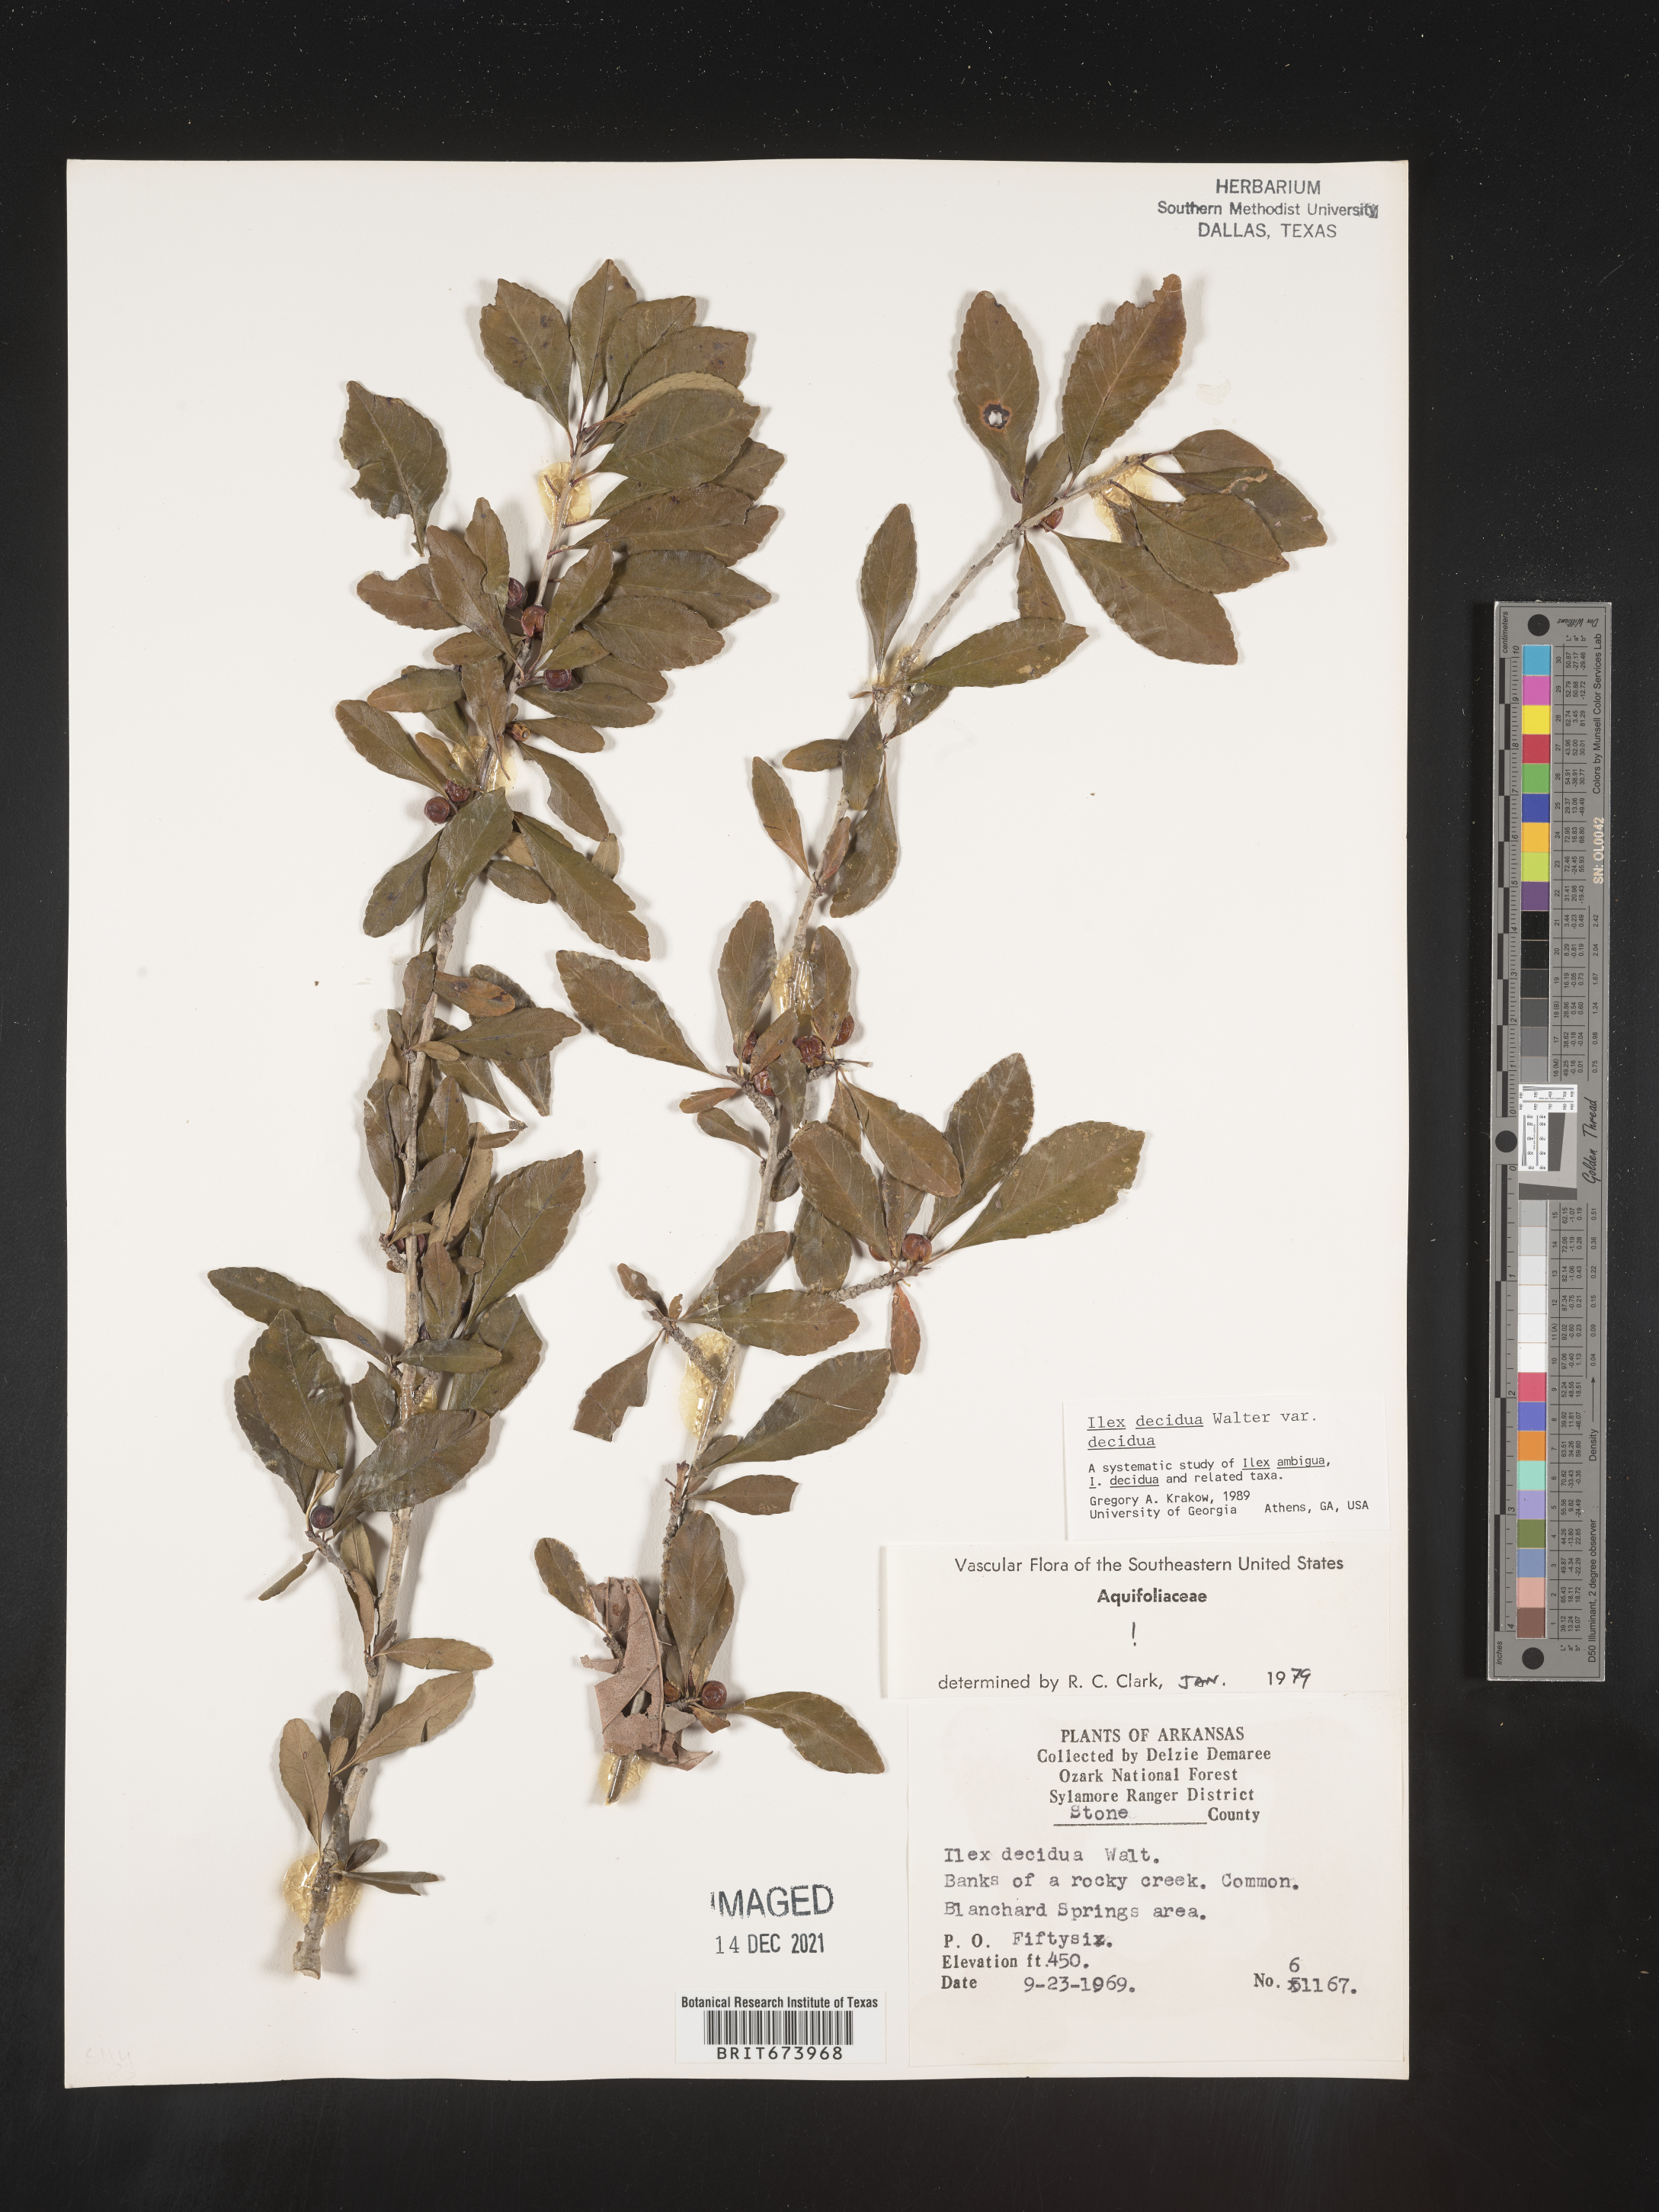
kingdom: Plantae
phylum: Tracheophyta
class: Magnoliopsida
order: Aquifoliales
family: Aquifoliaceae
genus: Ilex
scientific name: Ilex decidua
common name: Possum-haw
